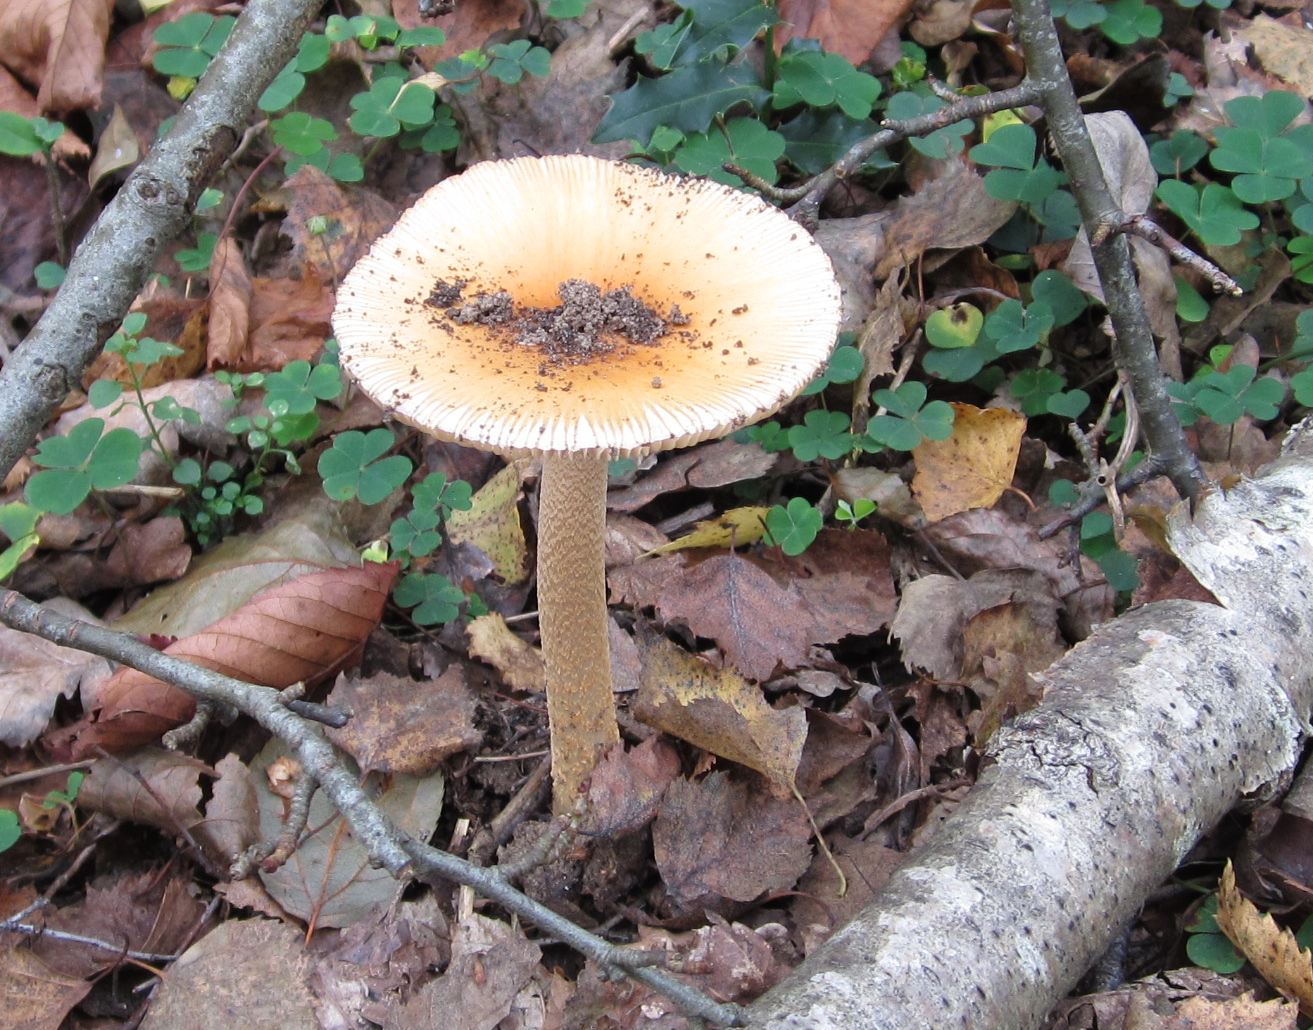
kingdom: Fungi
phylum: Basidiomycota
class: Agaricomycetes
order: Agaricales
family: Amanitaceae
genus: Amanita
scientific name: Amanita crocea
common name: gylden kam-fluesvamp
